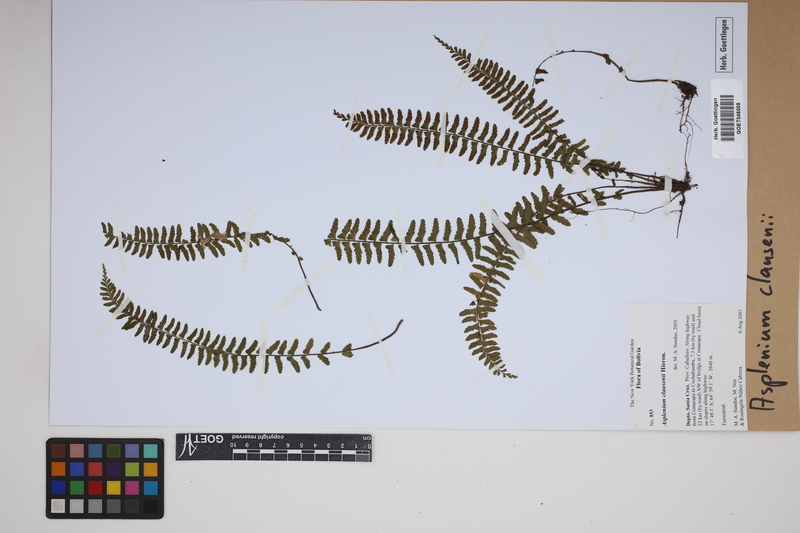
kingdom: Plantae
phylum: Tracheophyta
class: Polypodiopsida
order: Polypodiales
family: Aspleniaceae
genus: Asplenium
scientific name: Asplenium claussenii
